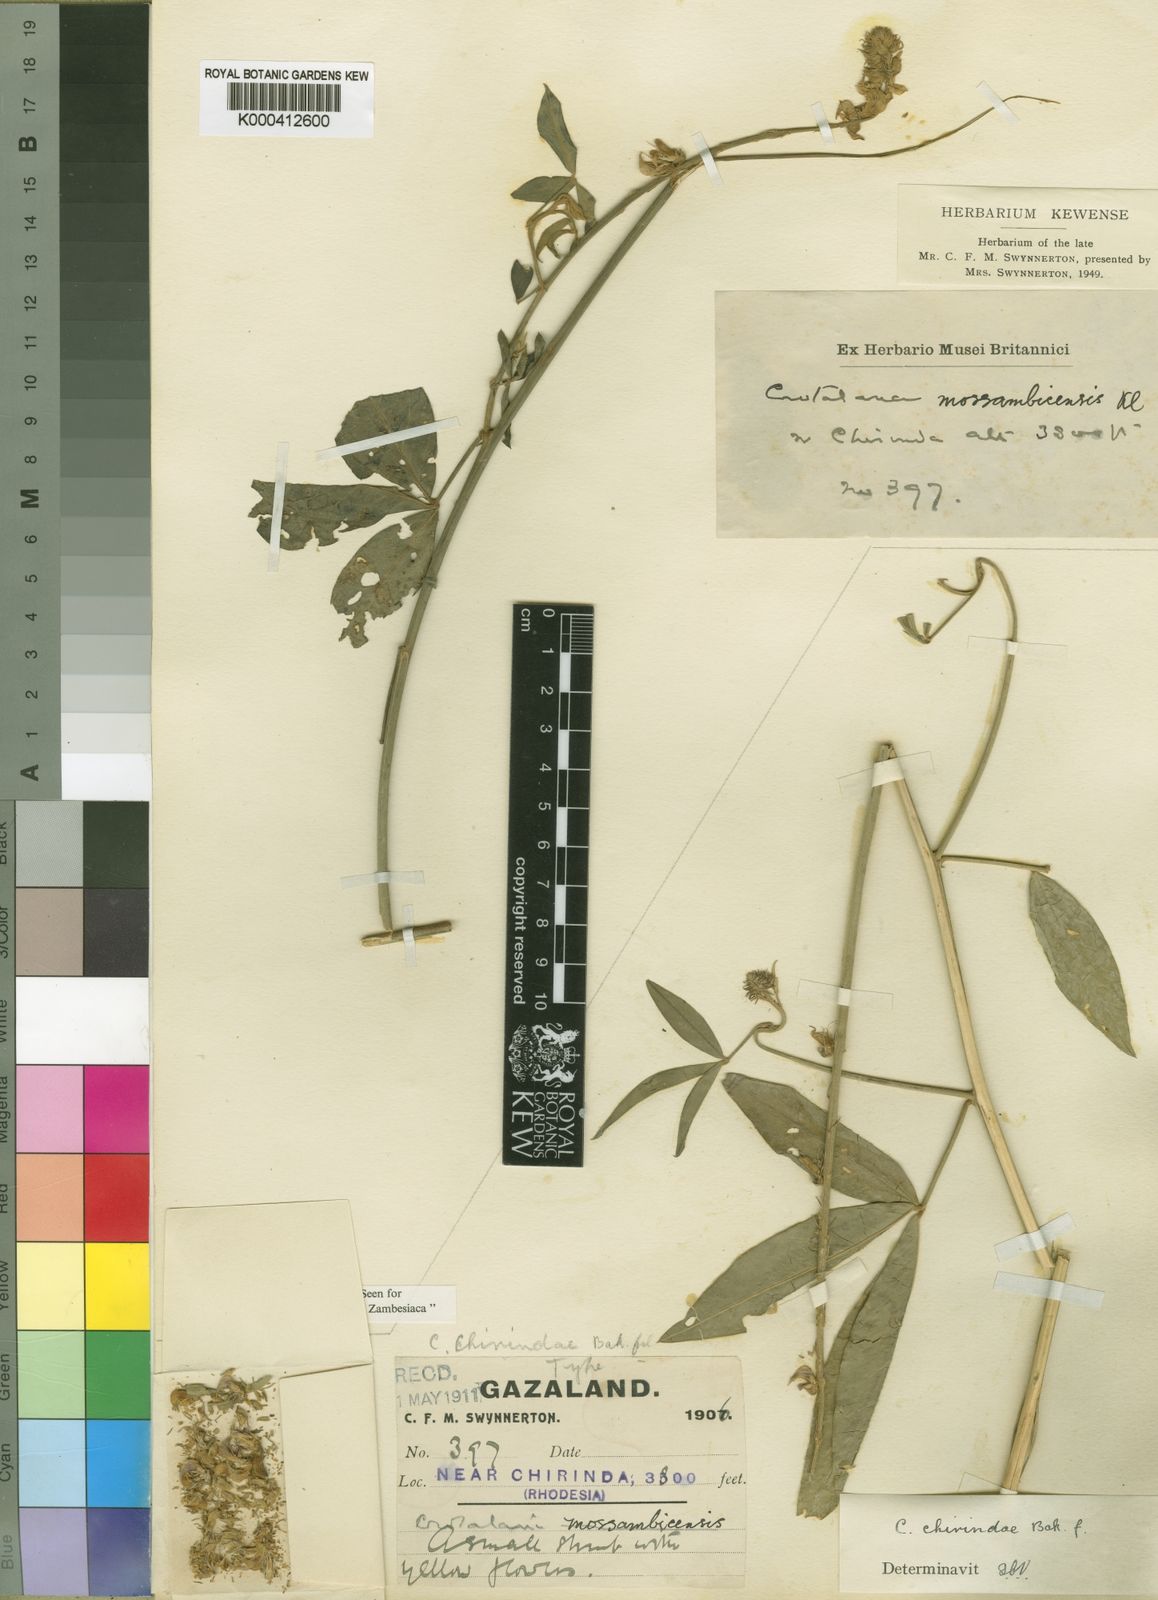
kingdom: Plantae
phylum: Tracheophyta
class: Magnoliopsida
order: Fabales
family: Fabaceae
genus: Crotalaria
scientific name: Crotalaria chirindae
